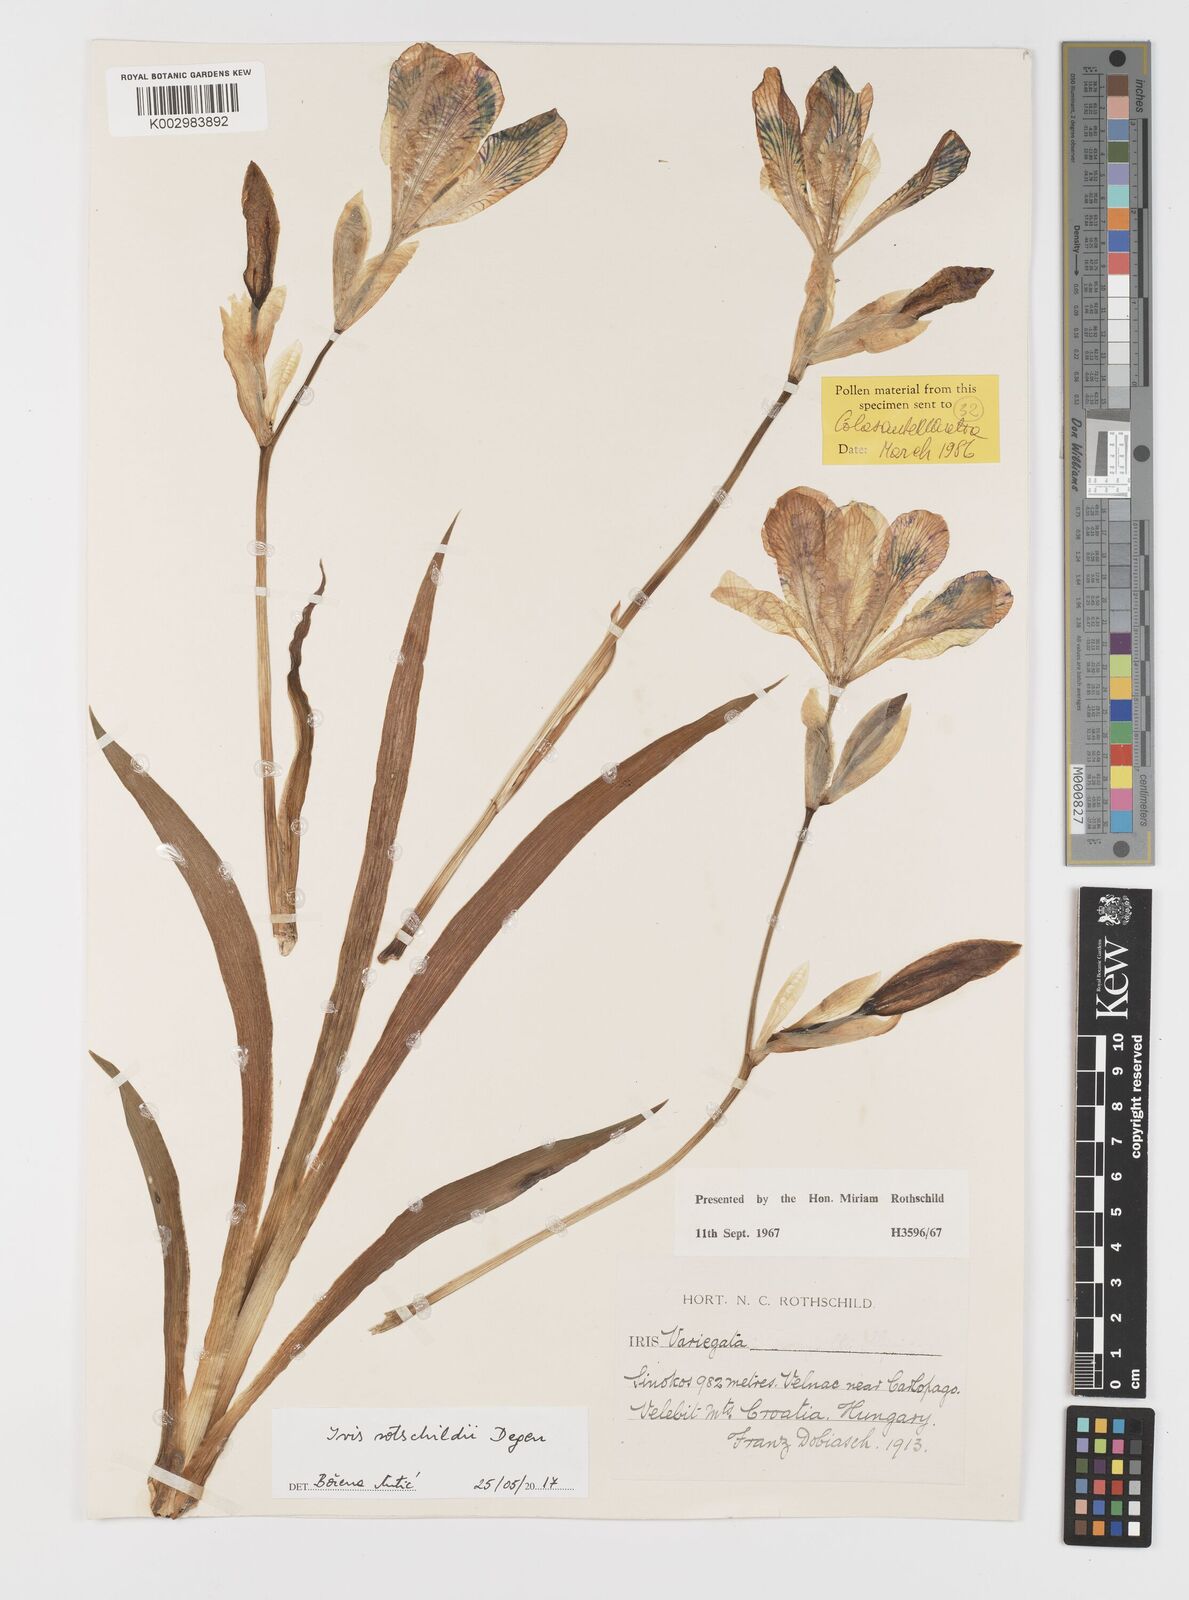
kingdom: Plantae
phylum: Tracheophyta
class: Liliopsida
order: Asparagales
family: Iridaceae
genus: Iris
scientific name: Iris germanica
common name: German iris
